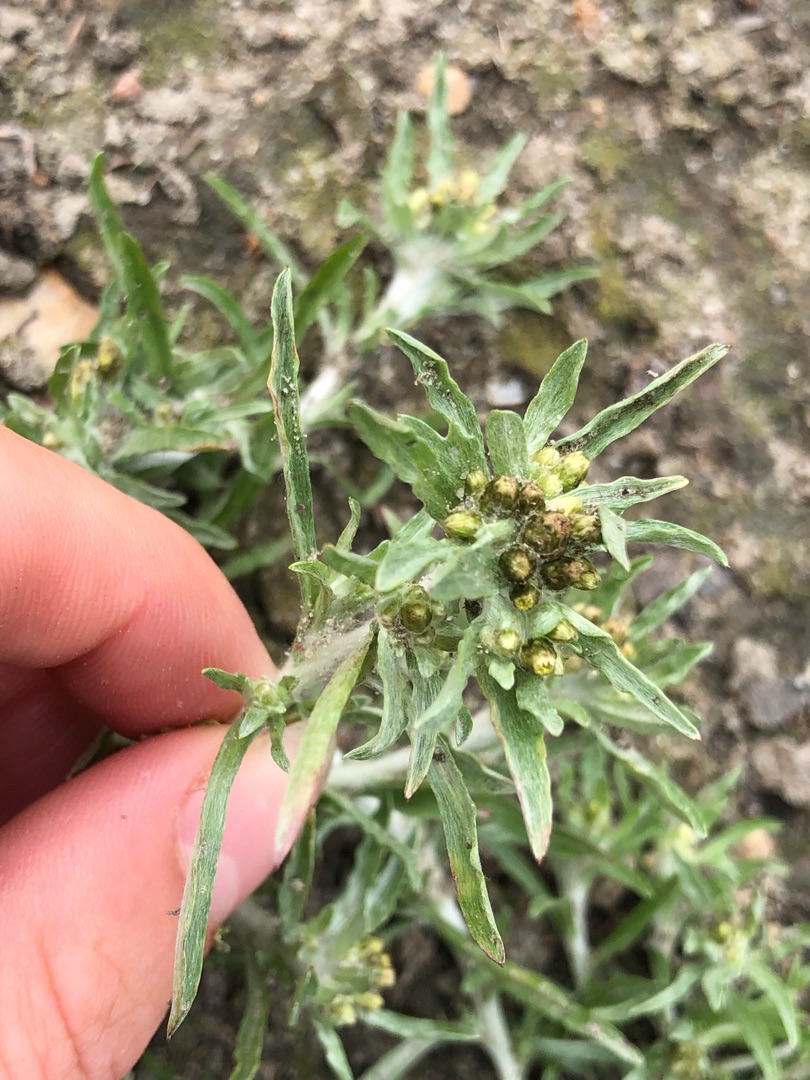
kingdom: Plantae
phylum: Tracheophyta
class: Magnoliopsida
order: Asterales
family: Asteraceae
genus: Gnaphalium
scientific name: Gnaphalium uliginosum
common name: Sump-evighedsblomst
